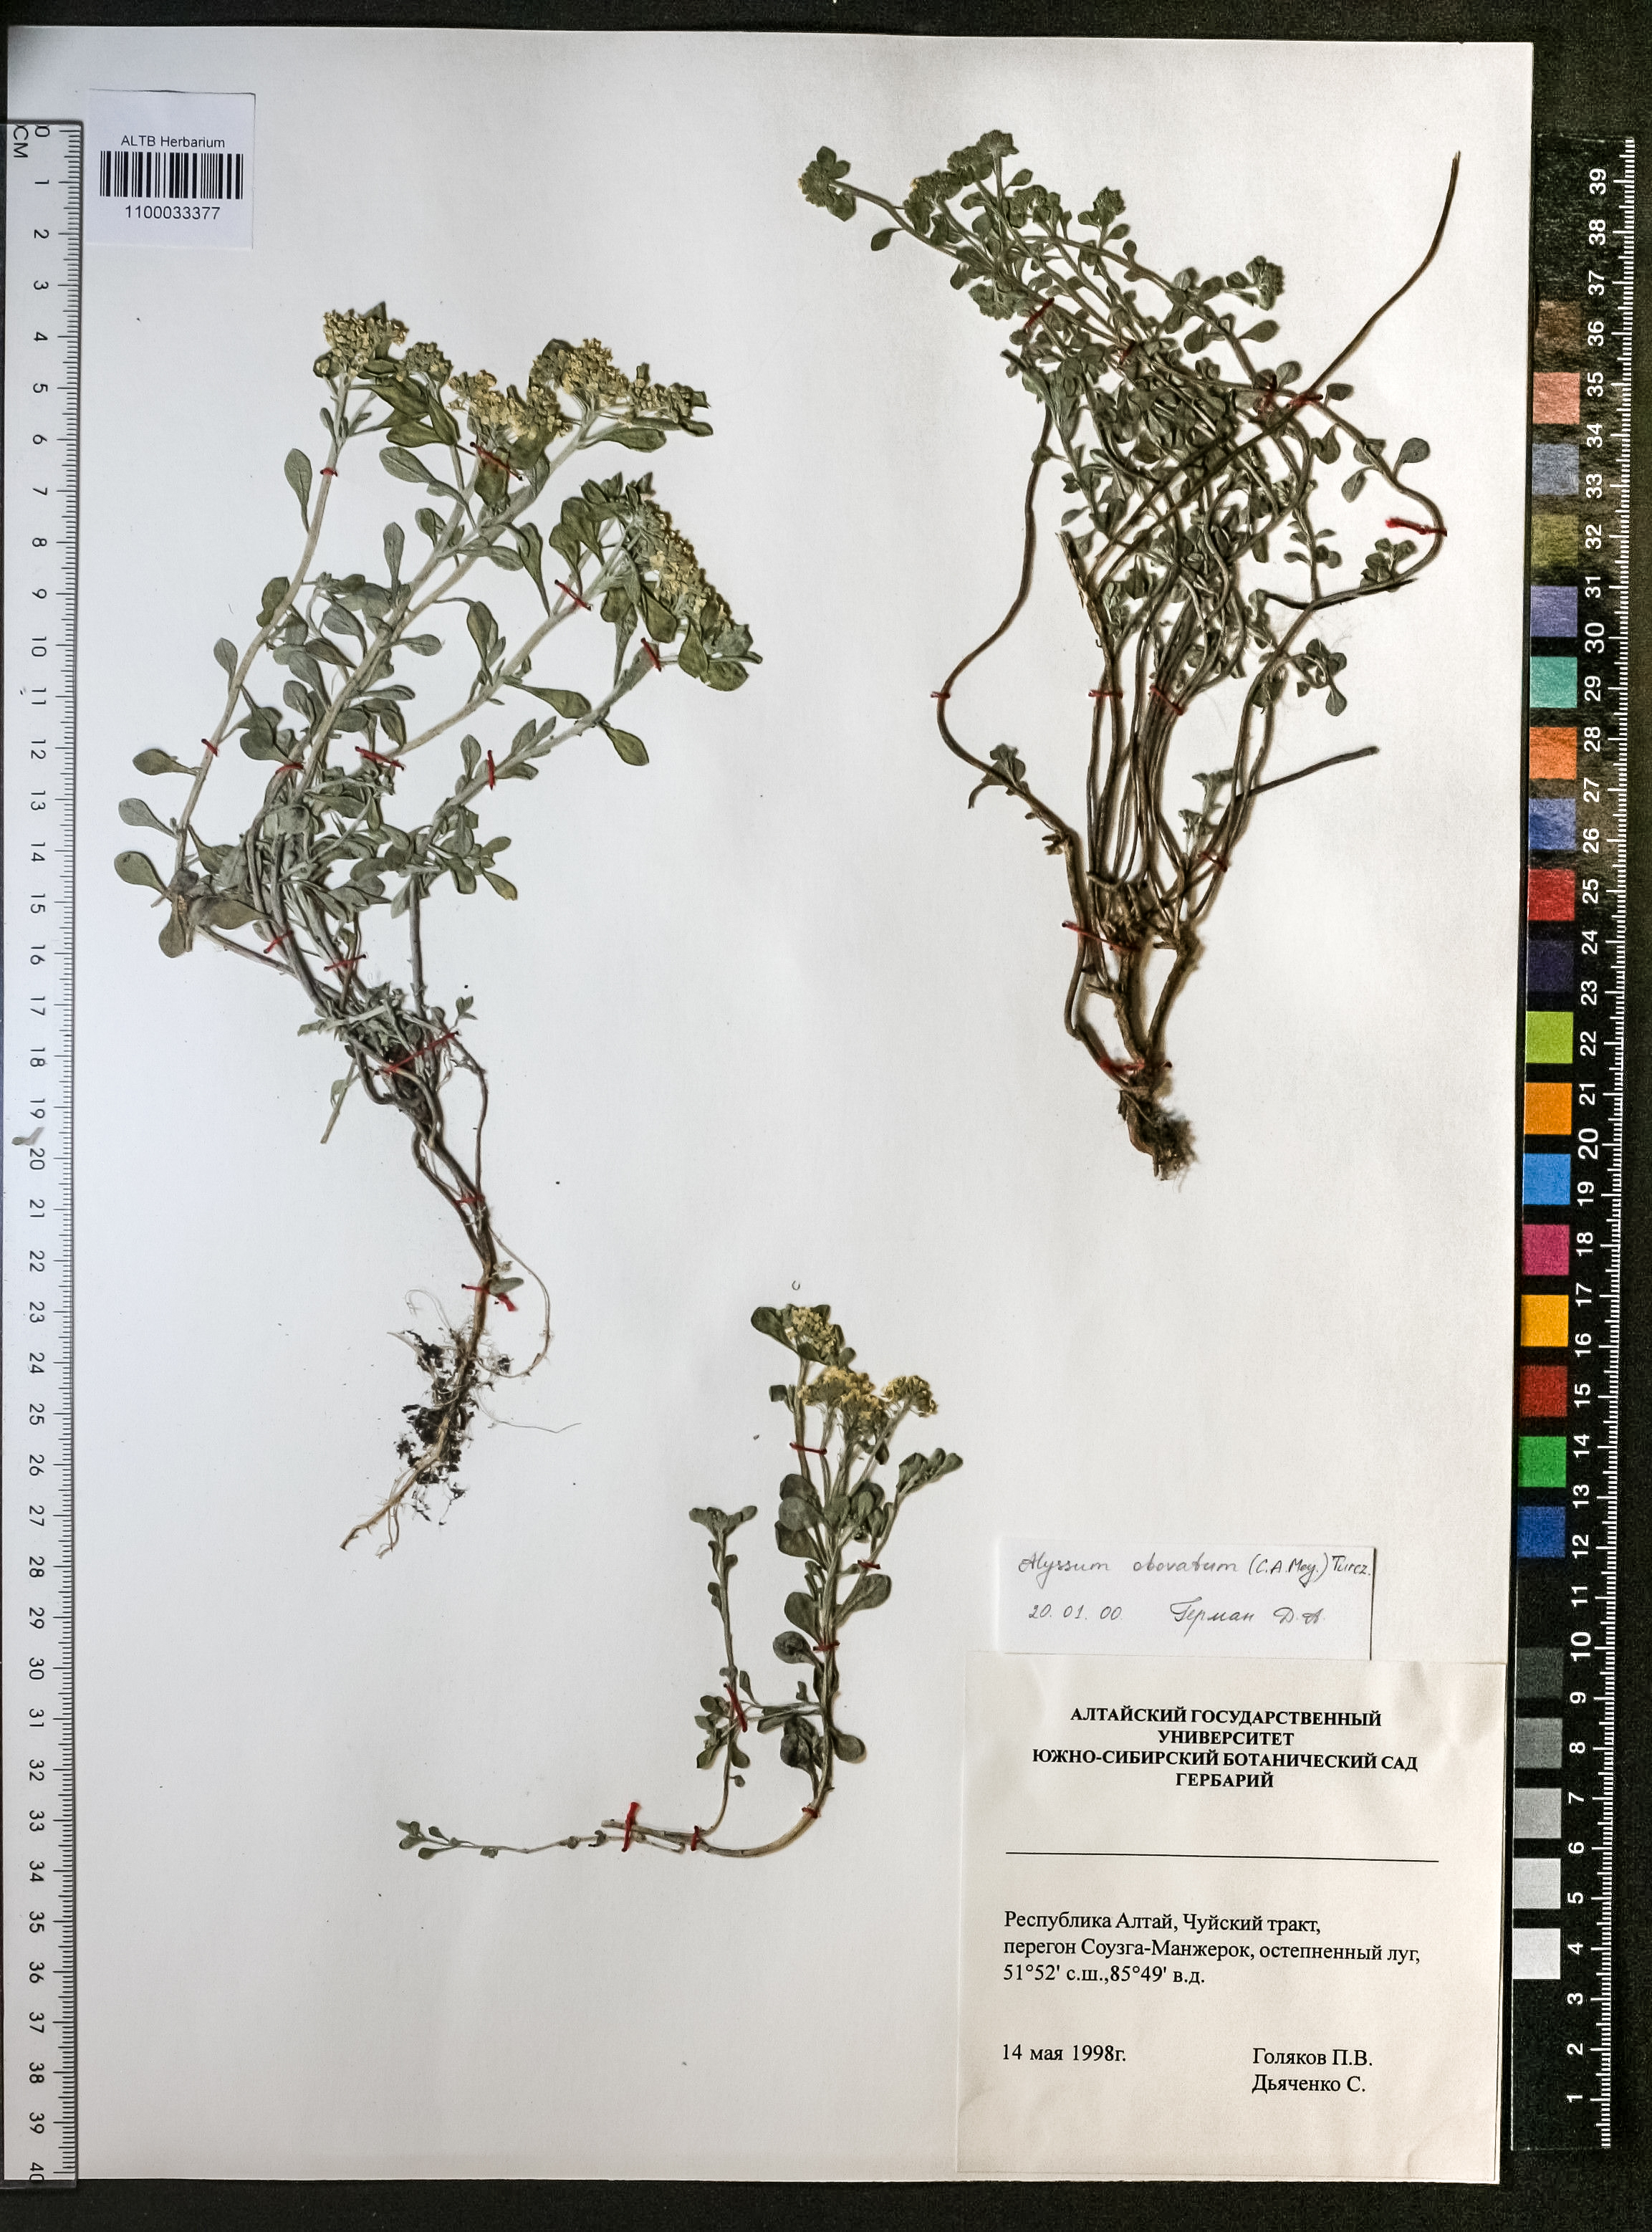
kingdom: Plantae
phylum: Tracheophyta
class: Magnoliopsida
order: Brassicales
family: Brassicaceae
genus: Odontarrhena
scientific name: Odontarrhena obovata
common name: American alyssum
